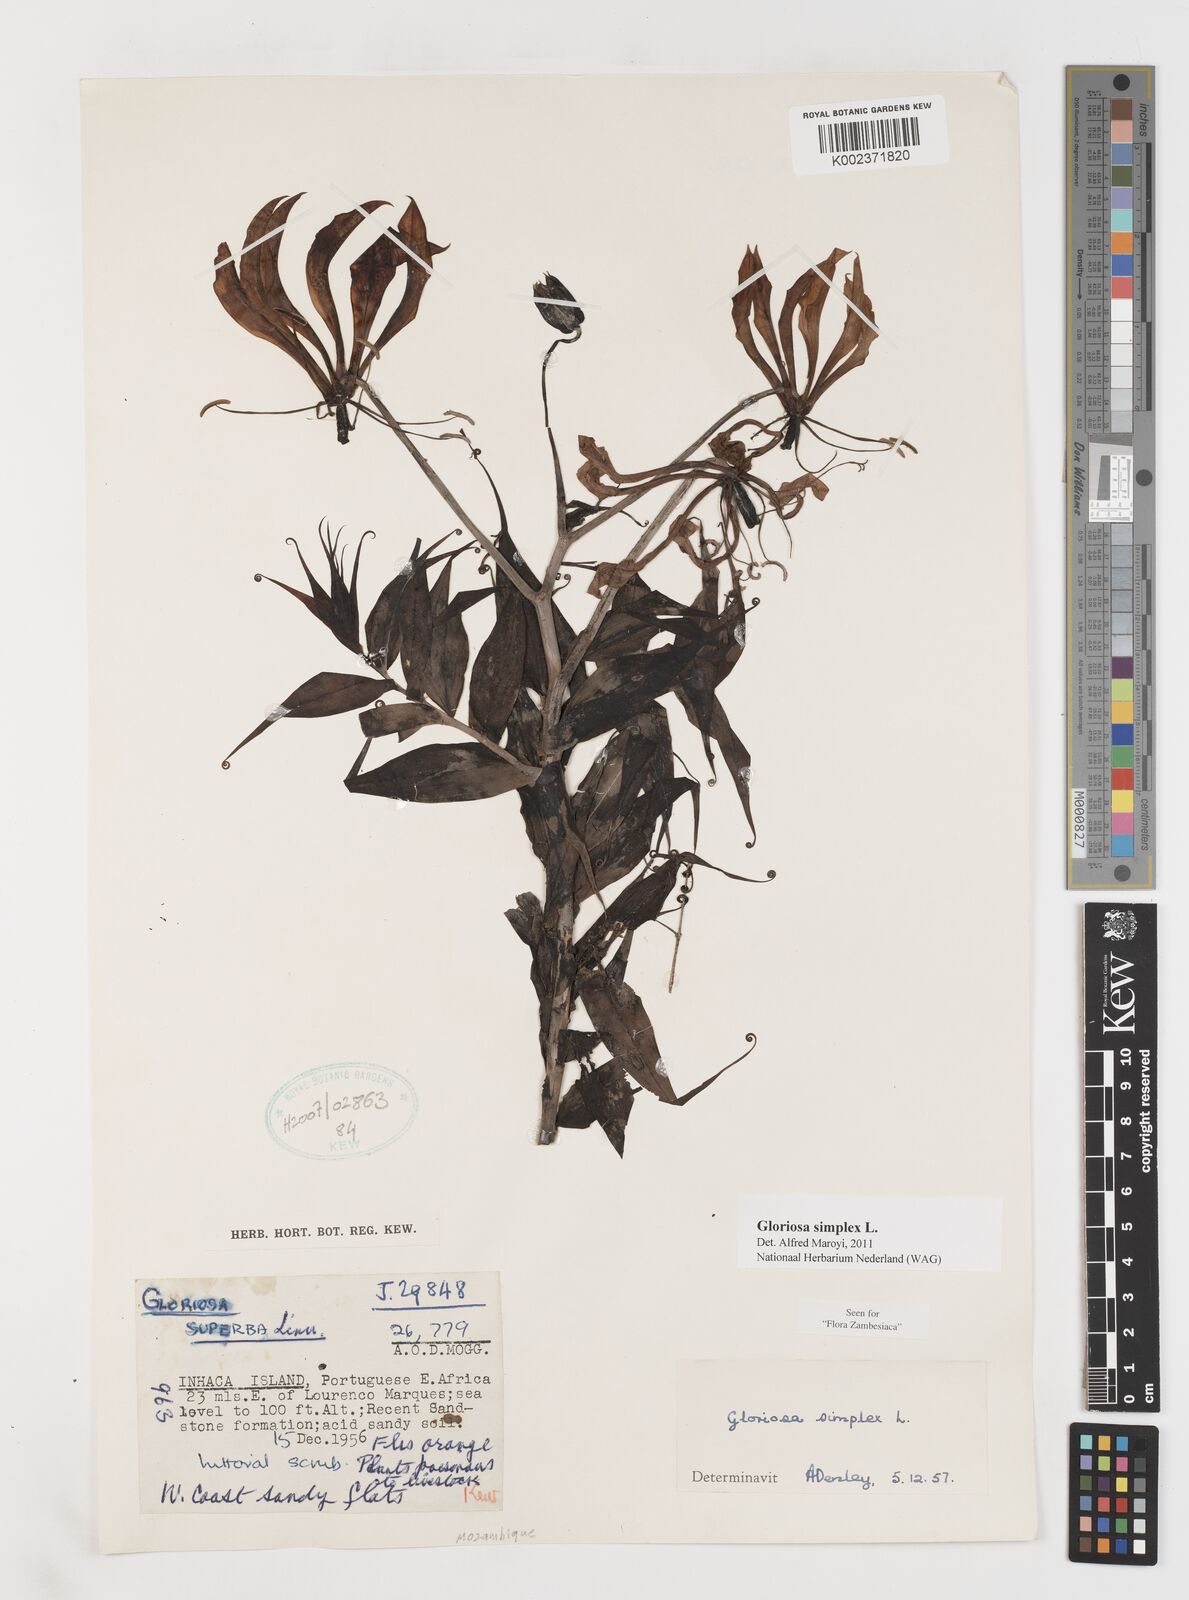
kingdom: Plantae
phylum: Tracheophyta
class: Liliopsida
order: Liliales
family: Colchicaceae
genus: Gloriosa
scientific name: Gloriosa simplex
